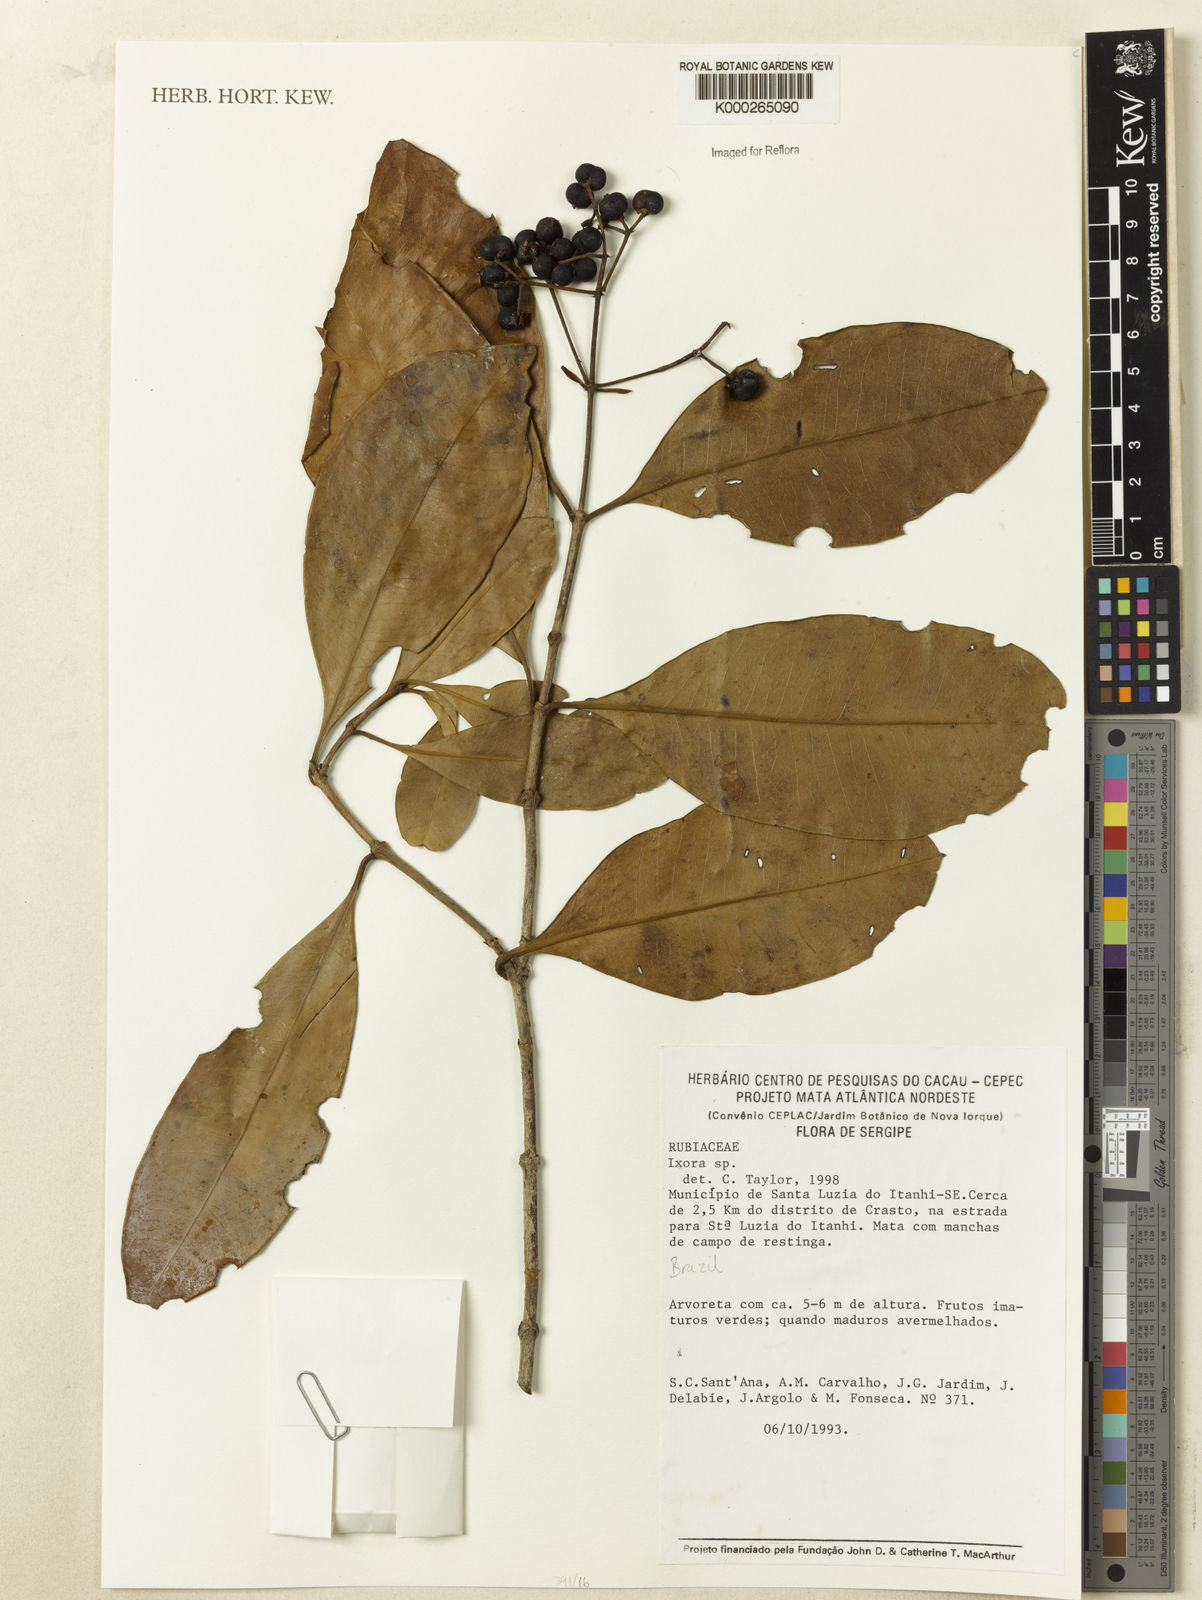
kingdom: Plantae
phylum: Tracheophyta
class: Magnoliopsida
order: Gentianales
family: Rubiaceae
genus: Ixora
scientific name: Ixora
